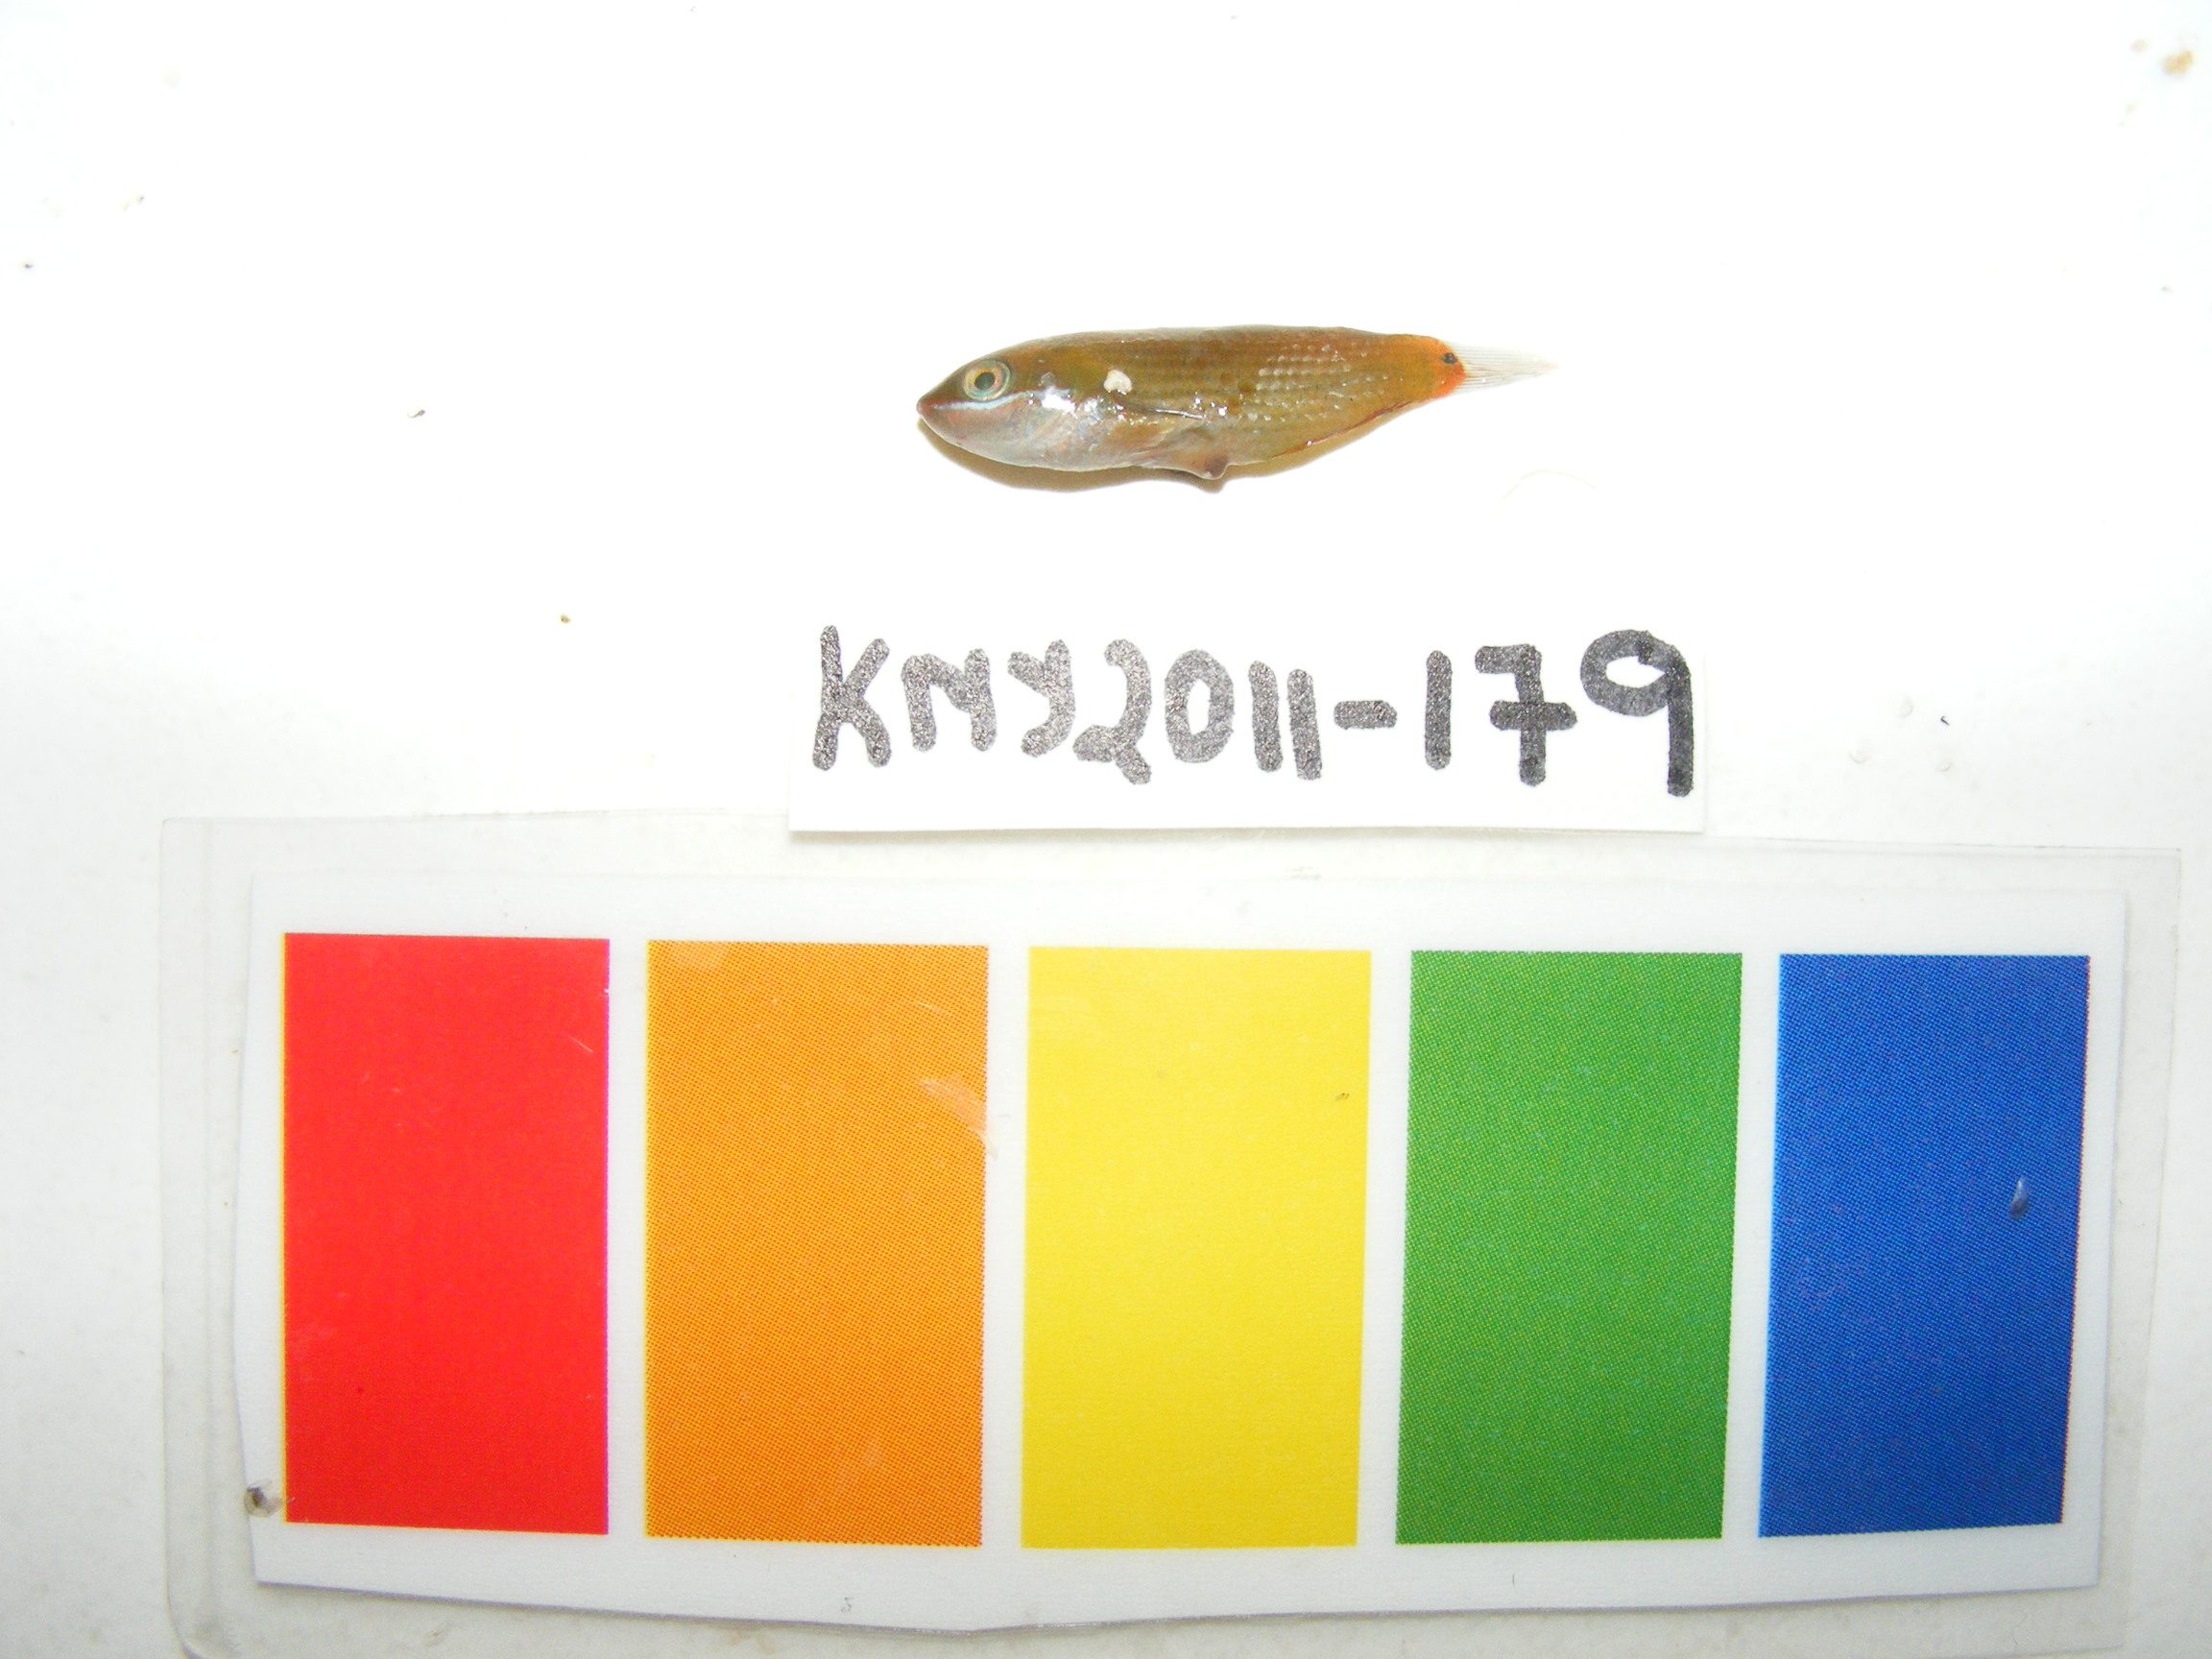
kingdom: Animalia
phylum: Chordata
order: Perciformes
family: Labridae
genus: Stethojulis
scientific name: Stethojulis strigiventer
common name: Three-ribbon wrasse
